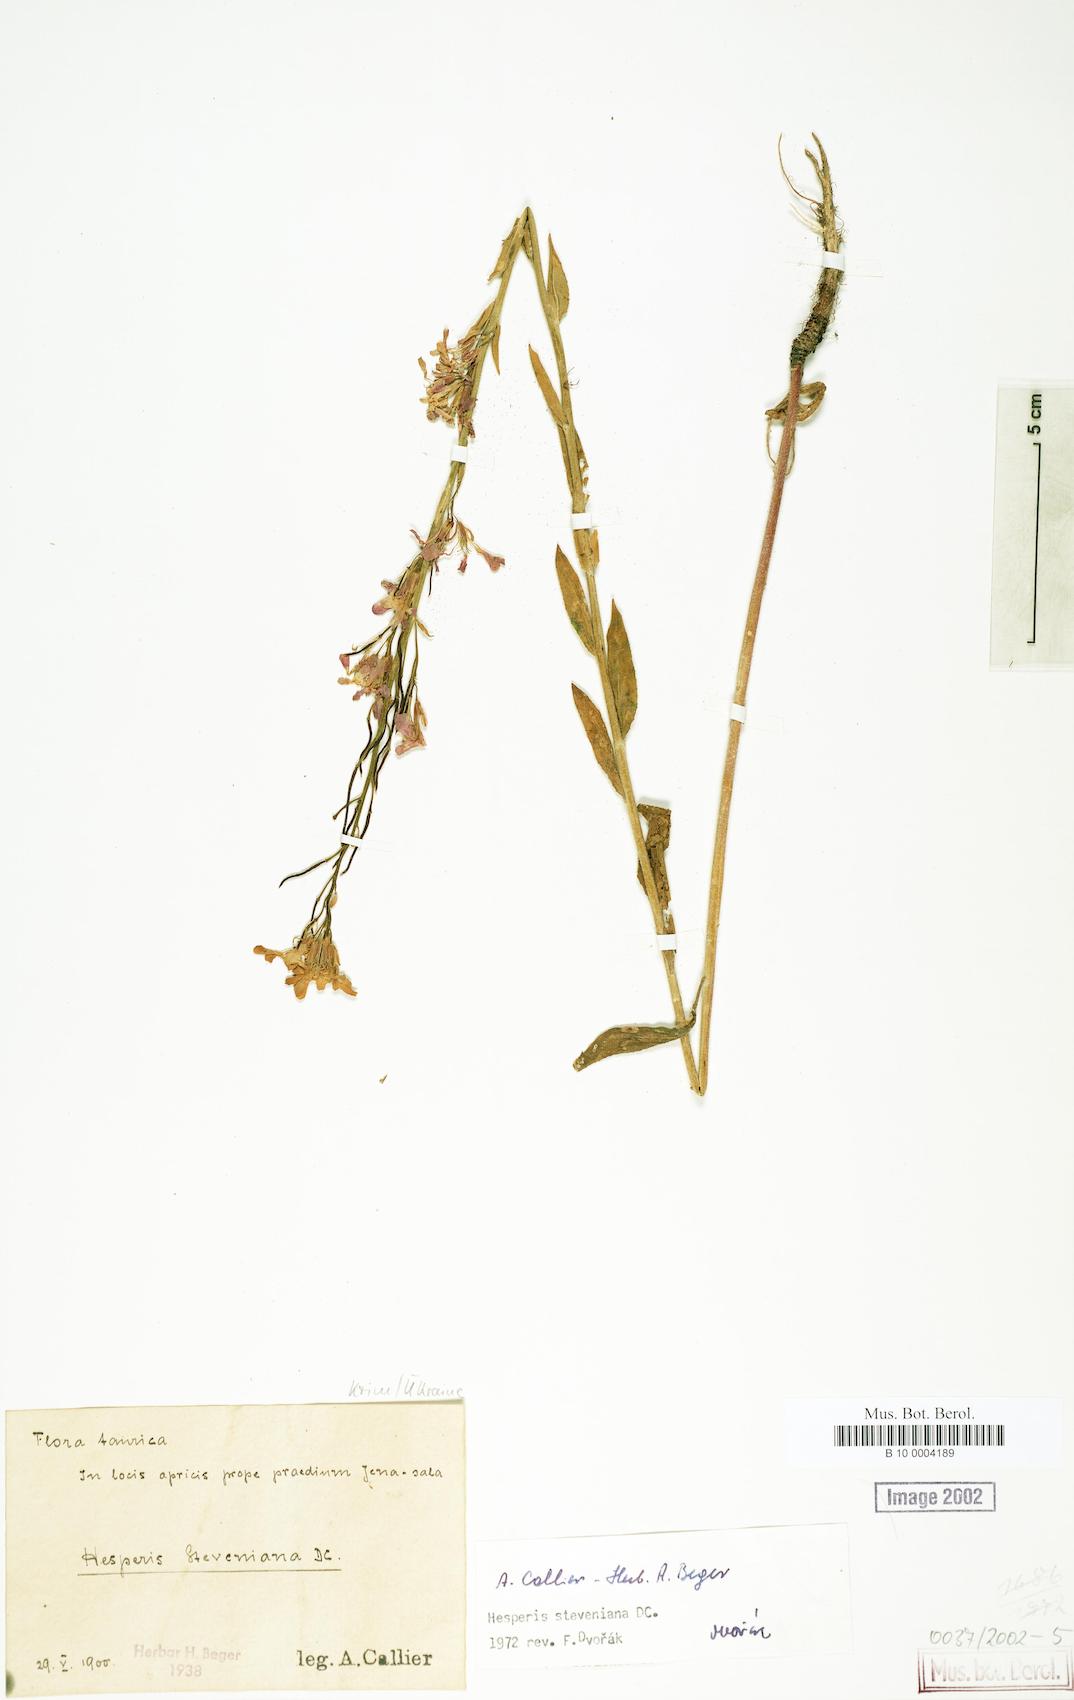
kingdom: Plantae
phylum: Tracheophyta
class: Magnoliopsida
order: Brassicales
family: Brassicaceae
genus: Hesperis
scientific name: Hesperis steveniana
